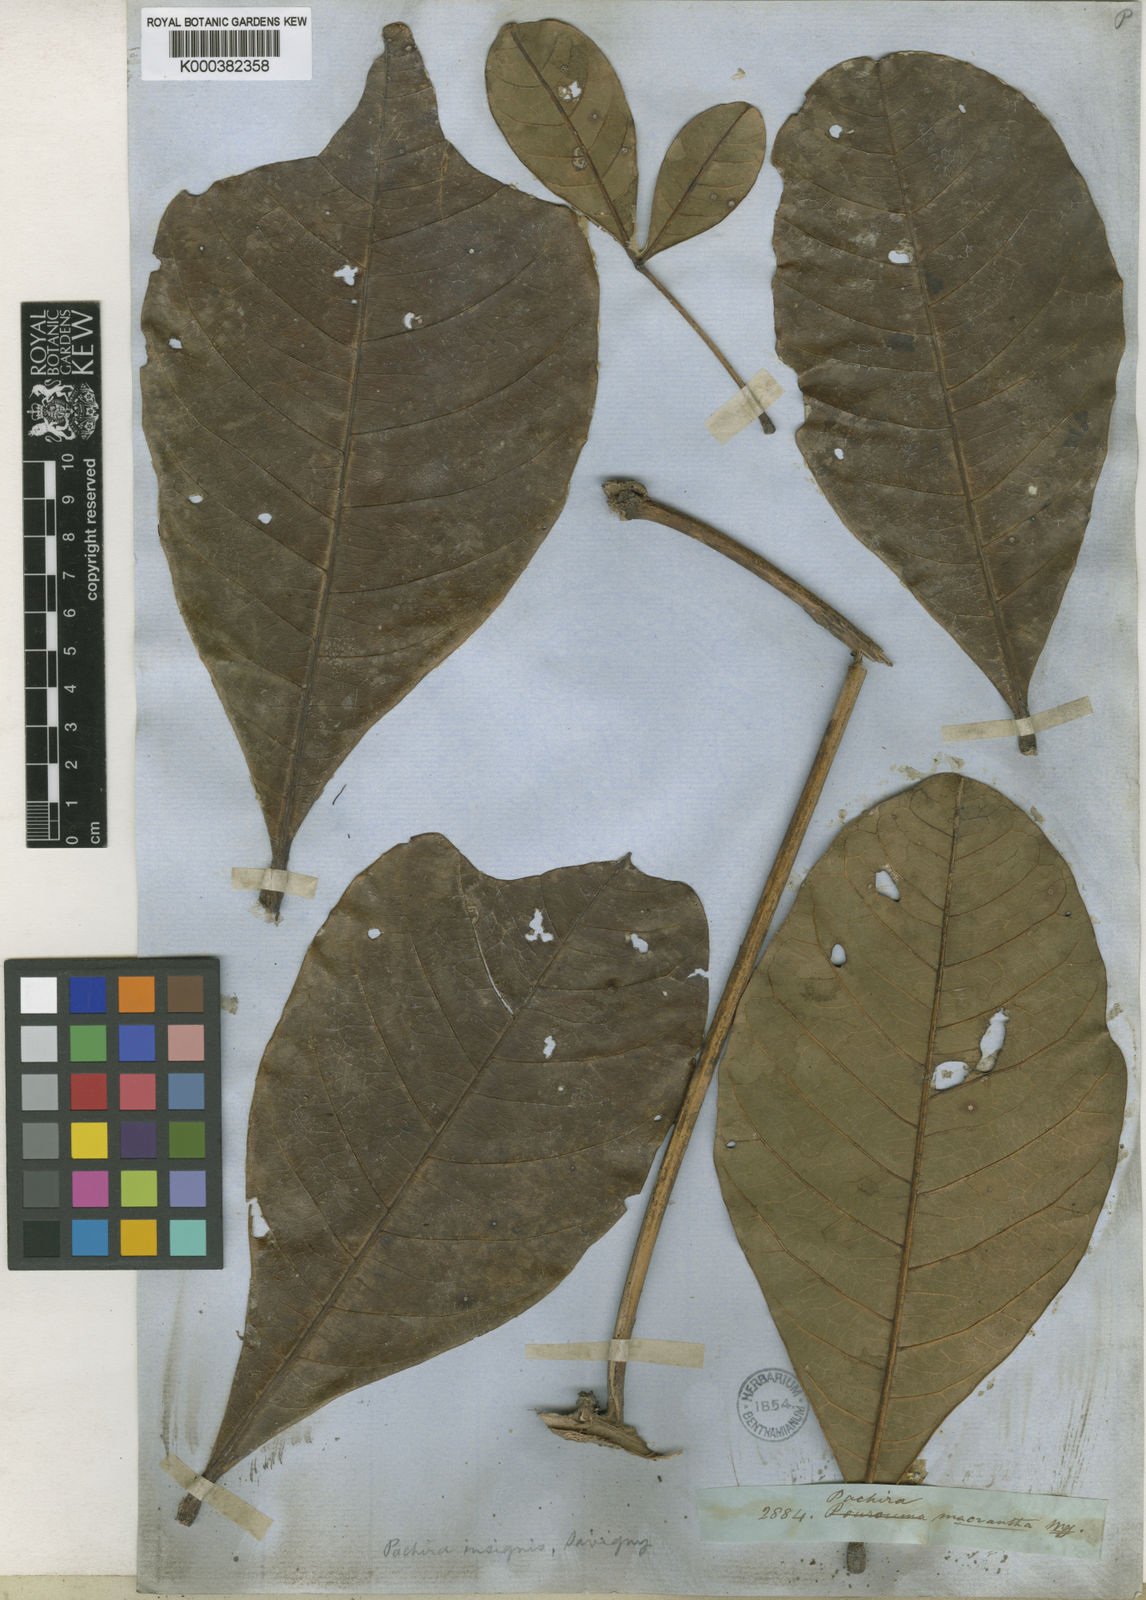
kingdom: Plantae
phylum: Tracheophyta
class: Magnoliopsida
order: Malvales
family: Malvaceae
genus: Pachira
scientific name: Pachira insignis
